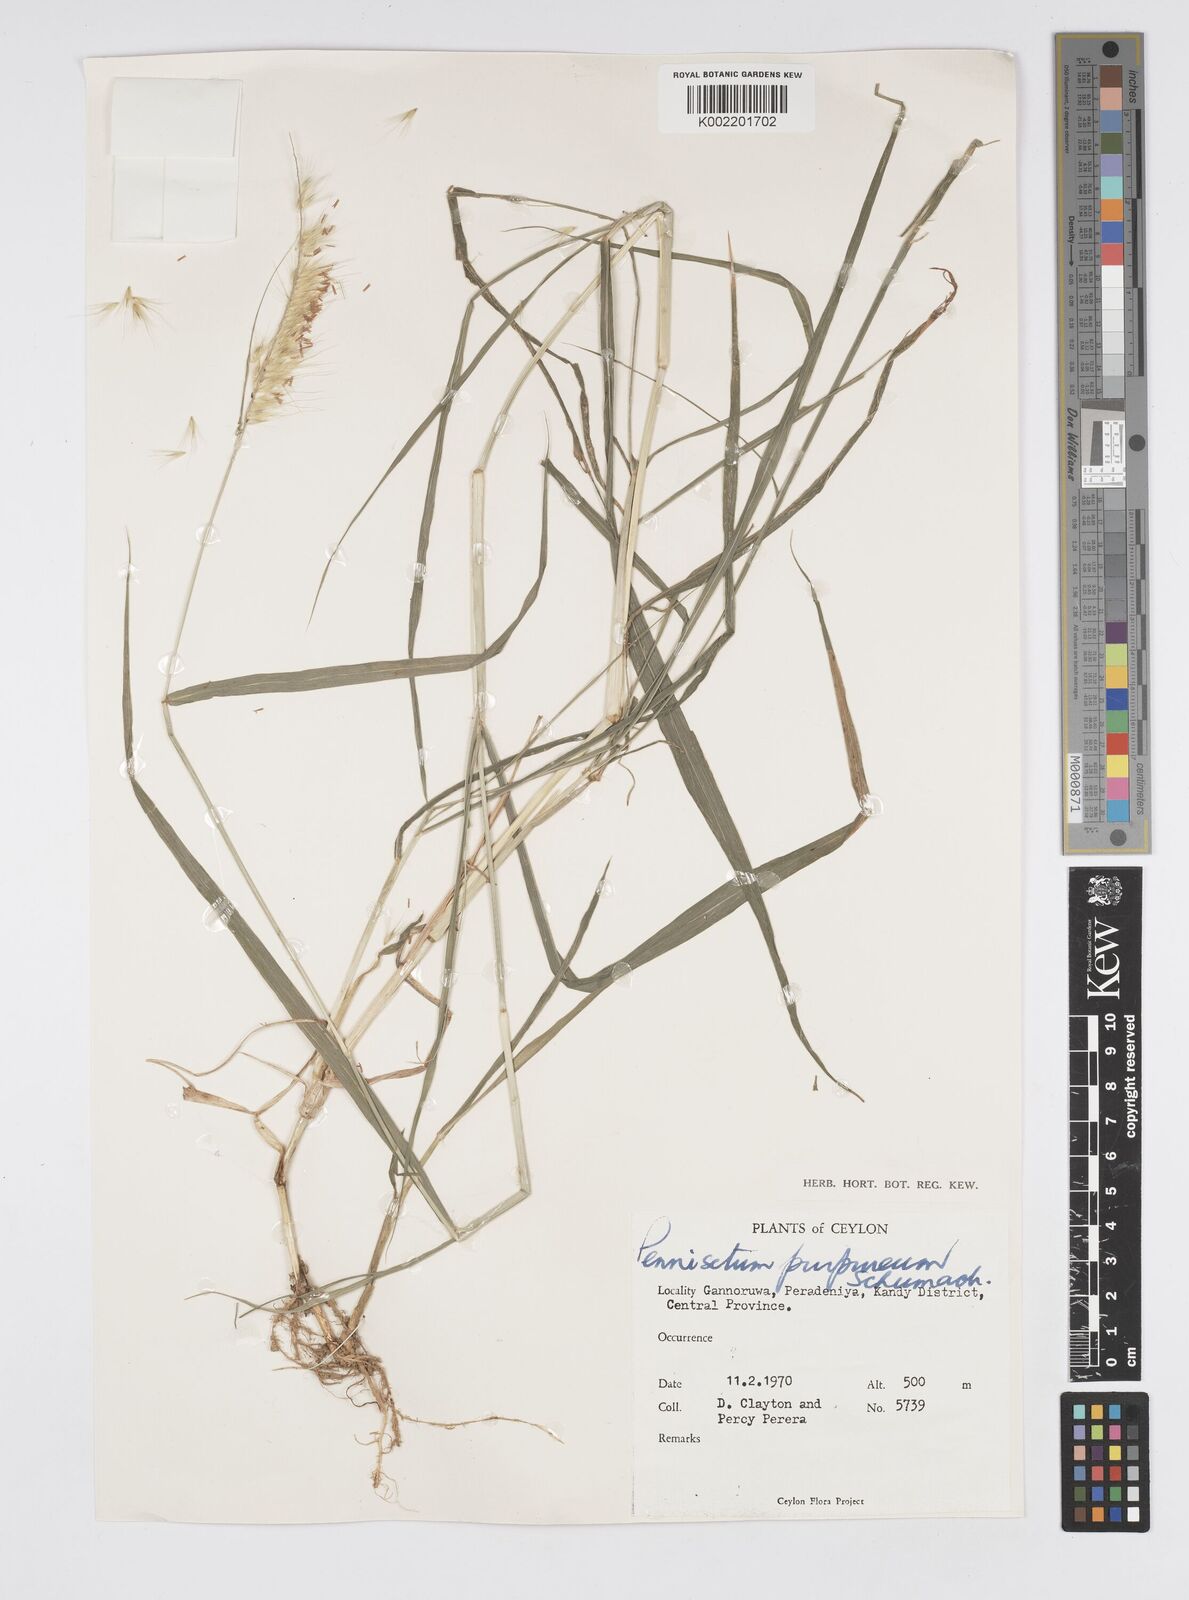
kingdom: Plantae
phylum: Tracheophyta
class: Liliopsida
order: Poales
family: Poaceae
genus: Cenchrus
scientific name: Cenchrus purpureus
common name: Elephant grass
